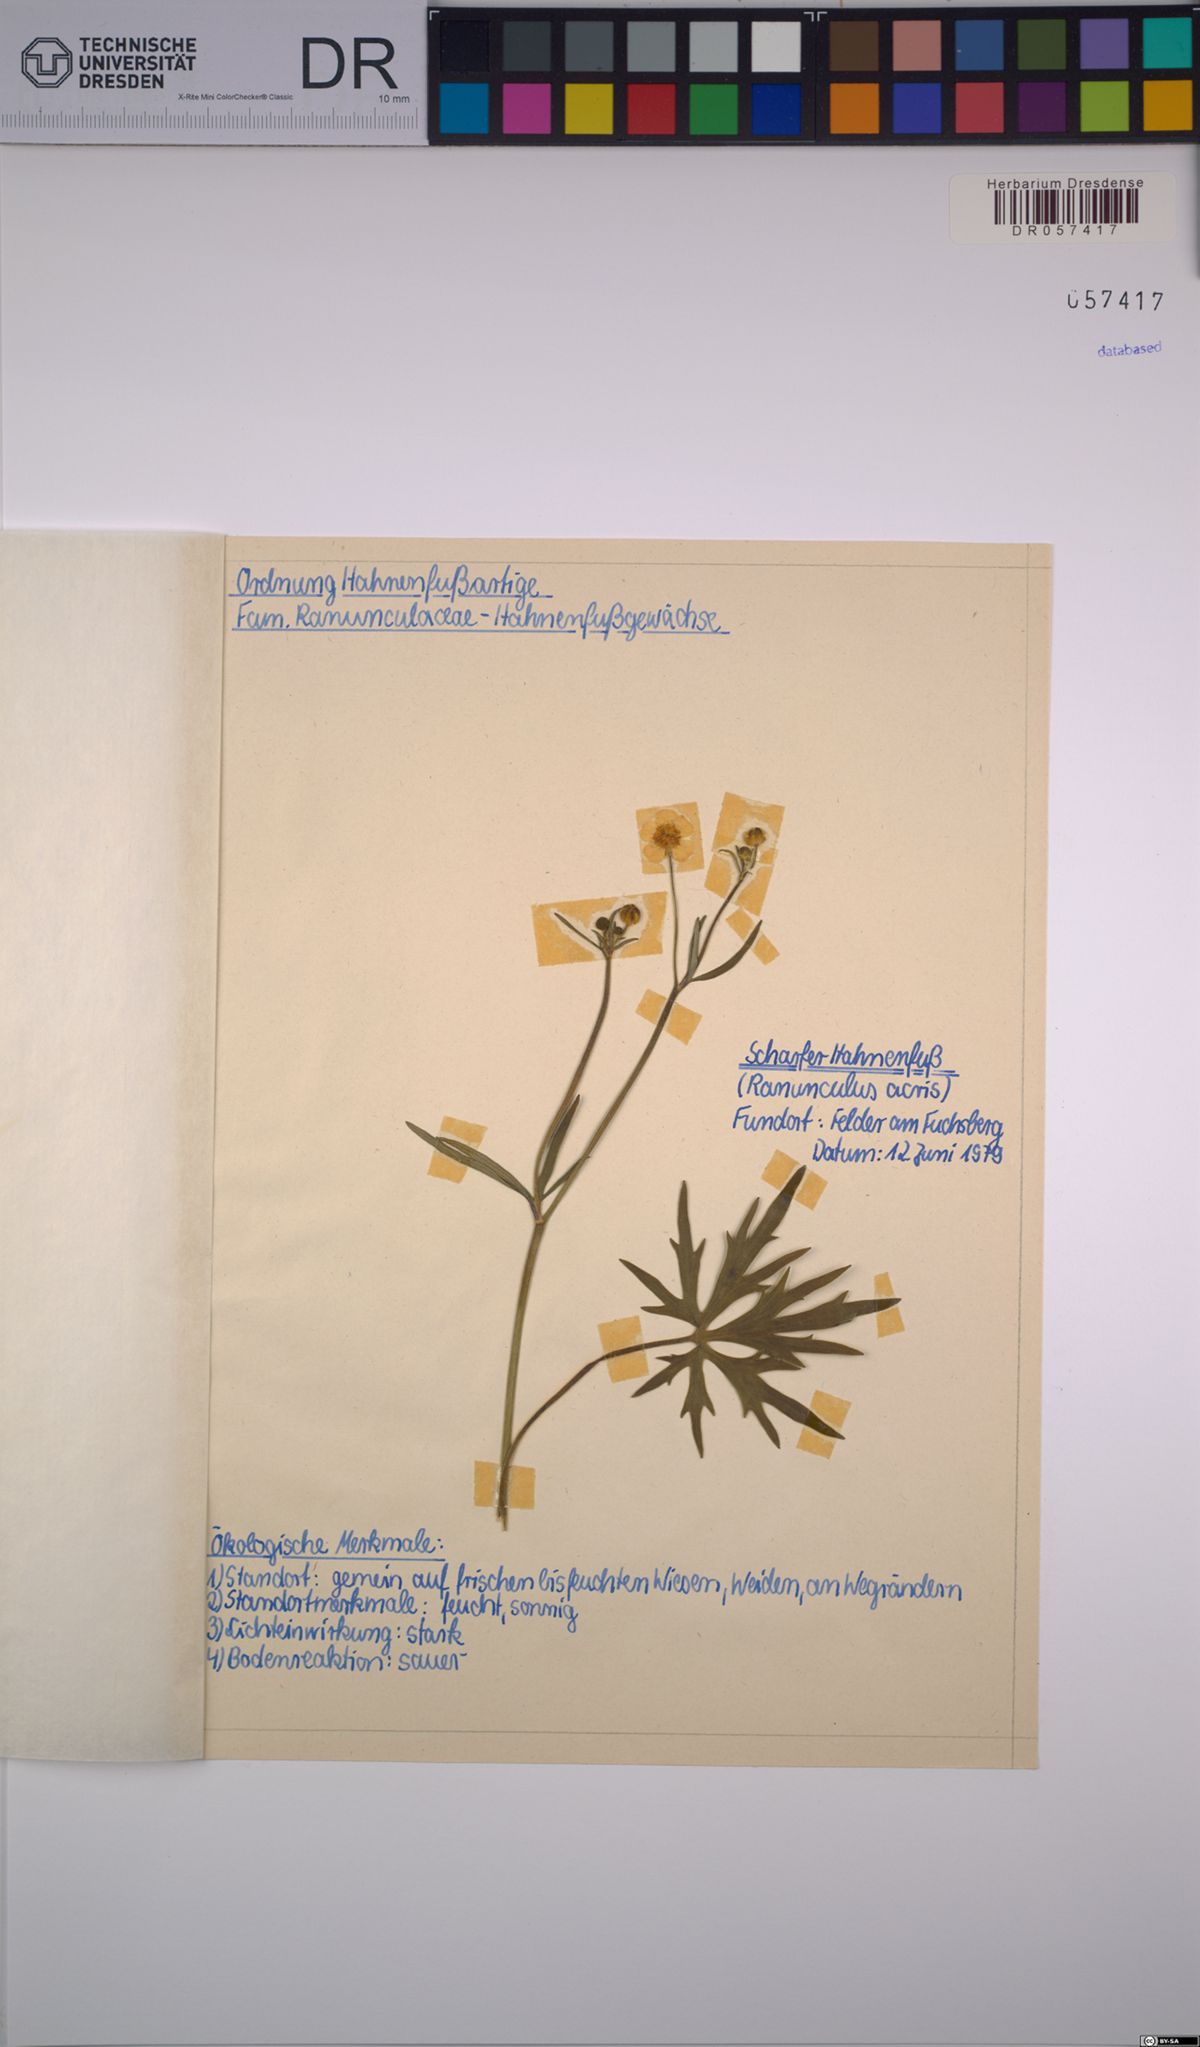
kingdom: Plantae
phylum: Tracheophyta
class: Magnoliopsida
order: Ranunculales
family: Ranunculaceae
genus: Ranunculus
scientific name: Ranunculus acris
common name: Meadow buttercup
